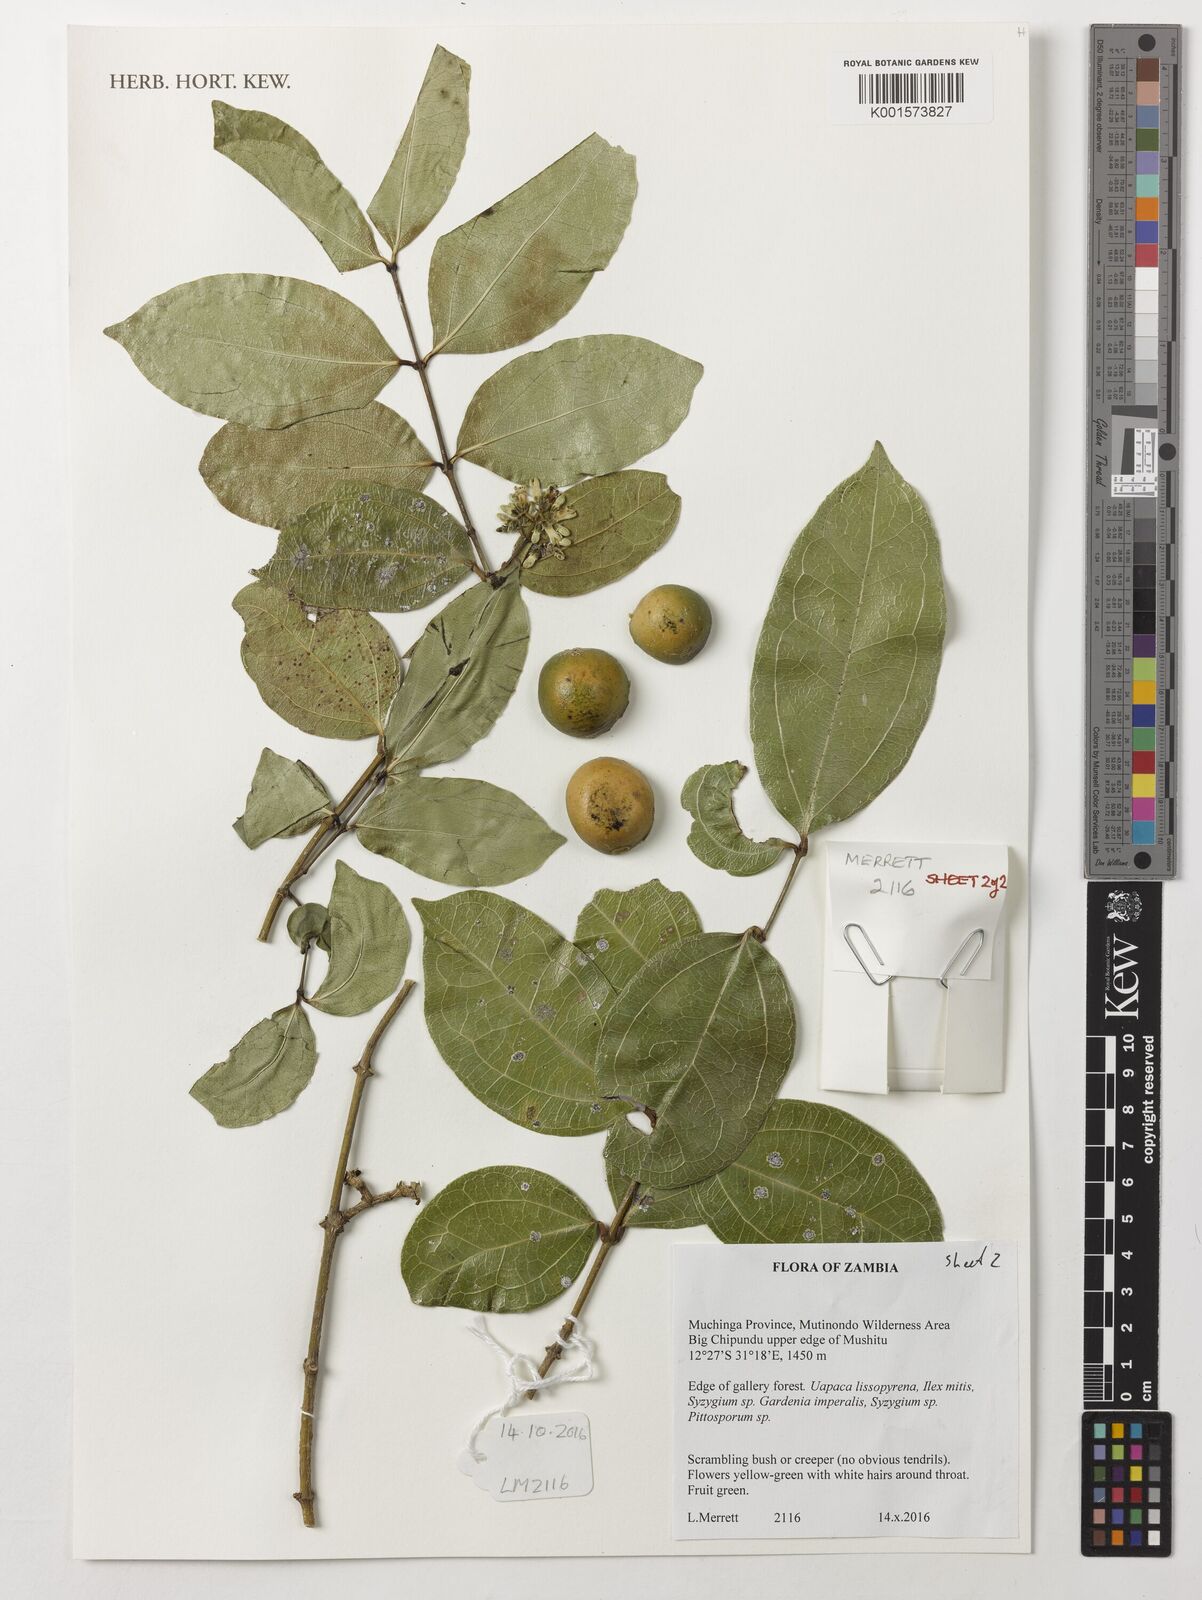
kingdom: Plantae
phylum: Tracheophyta
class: Magnoliopsida
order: Gentianales
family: Loganiaceae
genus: Strychnos
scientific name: Strychnos lucens
